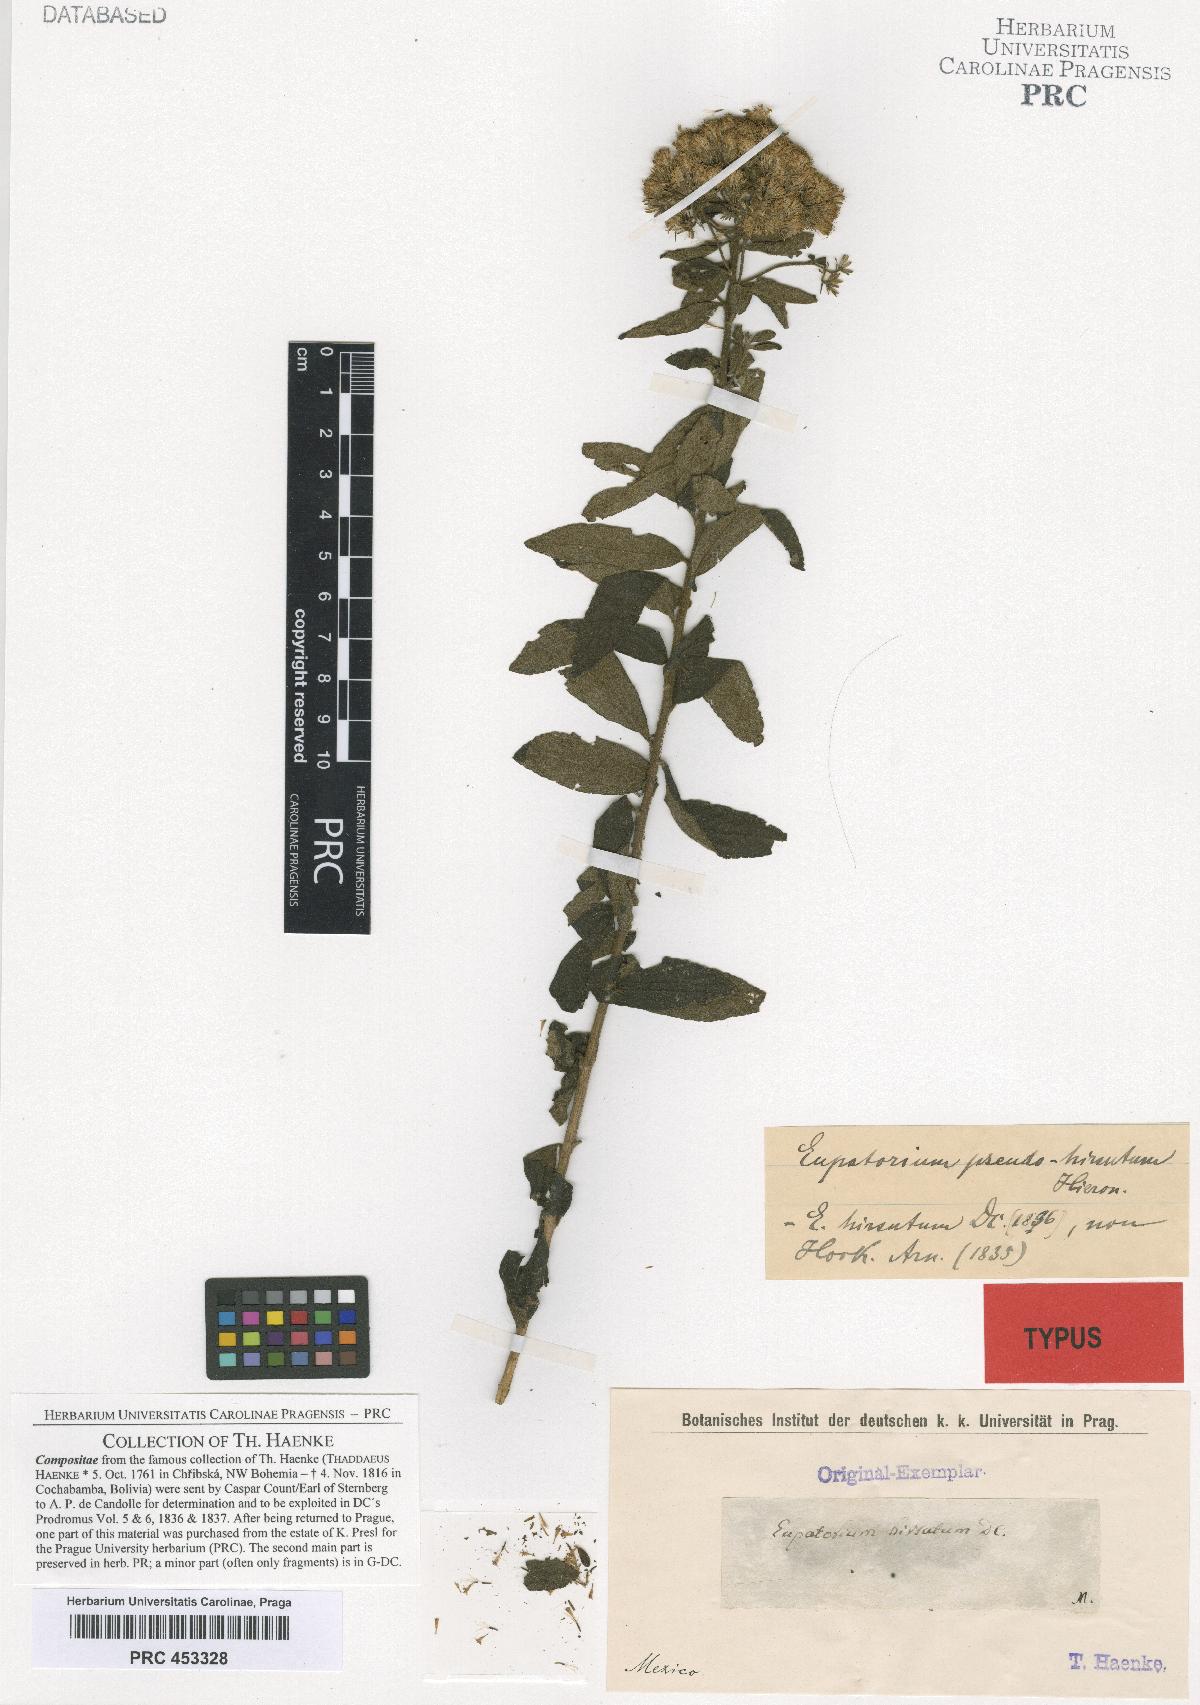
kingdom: Plantae
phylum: Tracheophyta
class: Magnoliopsida
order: Asterales
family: Asteraceae
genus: Ageratina
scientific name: Ageratina liebmannii
